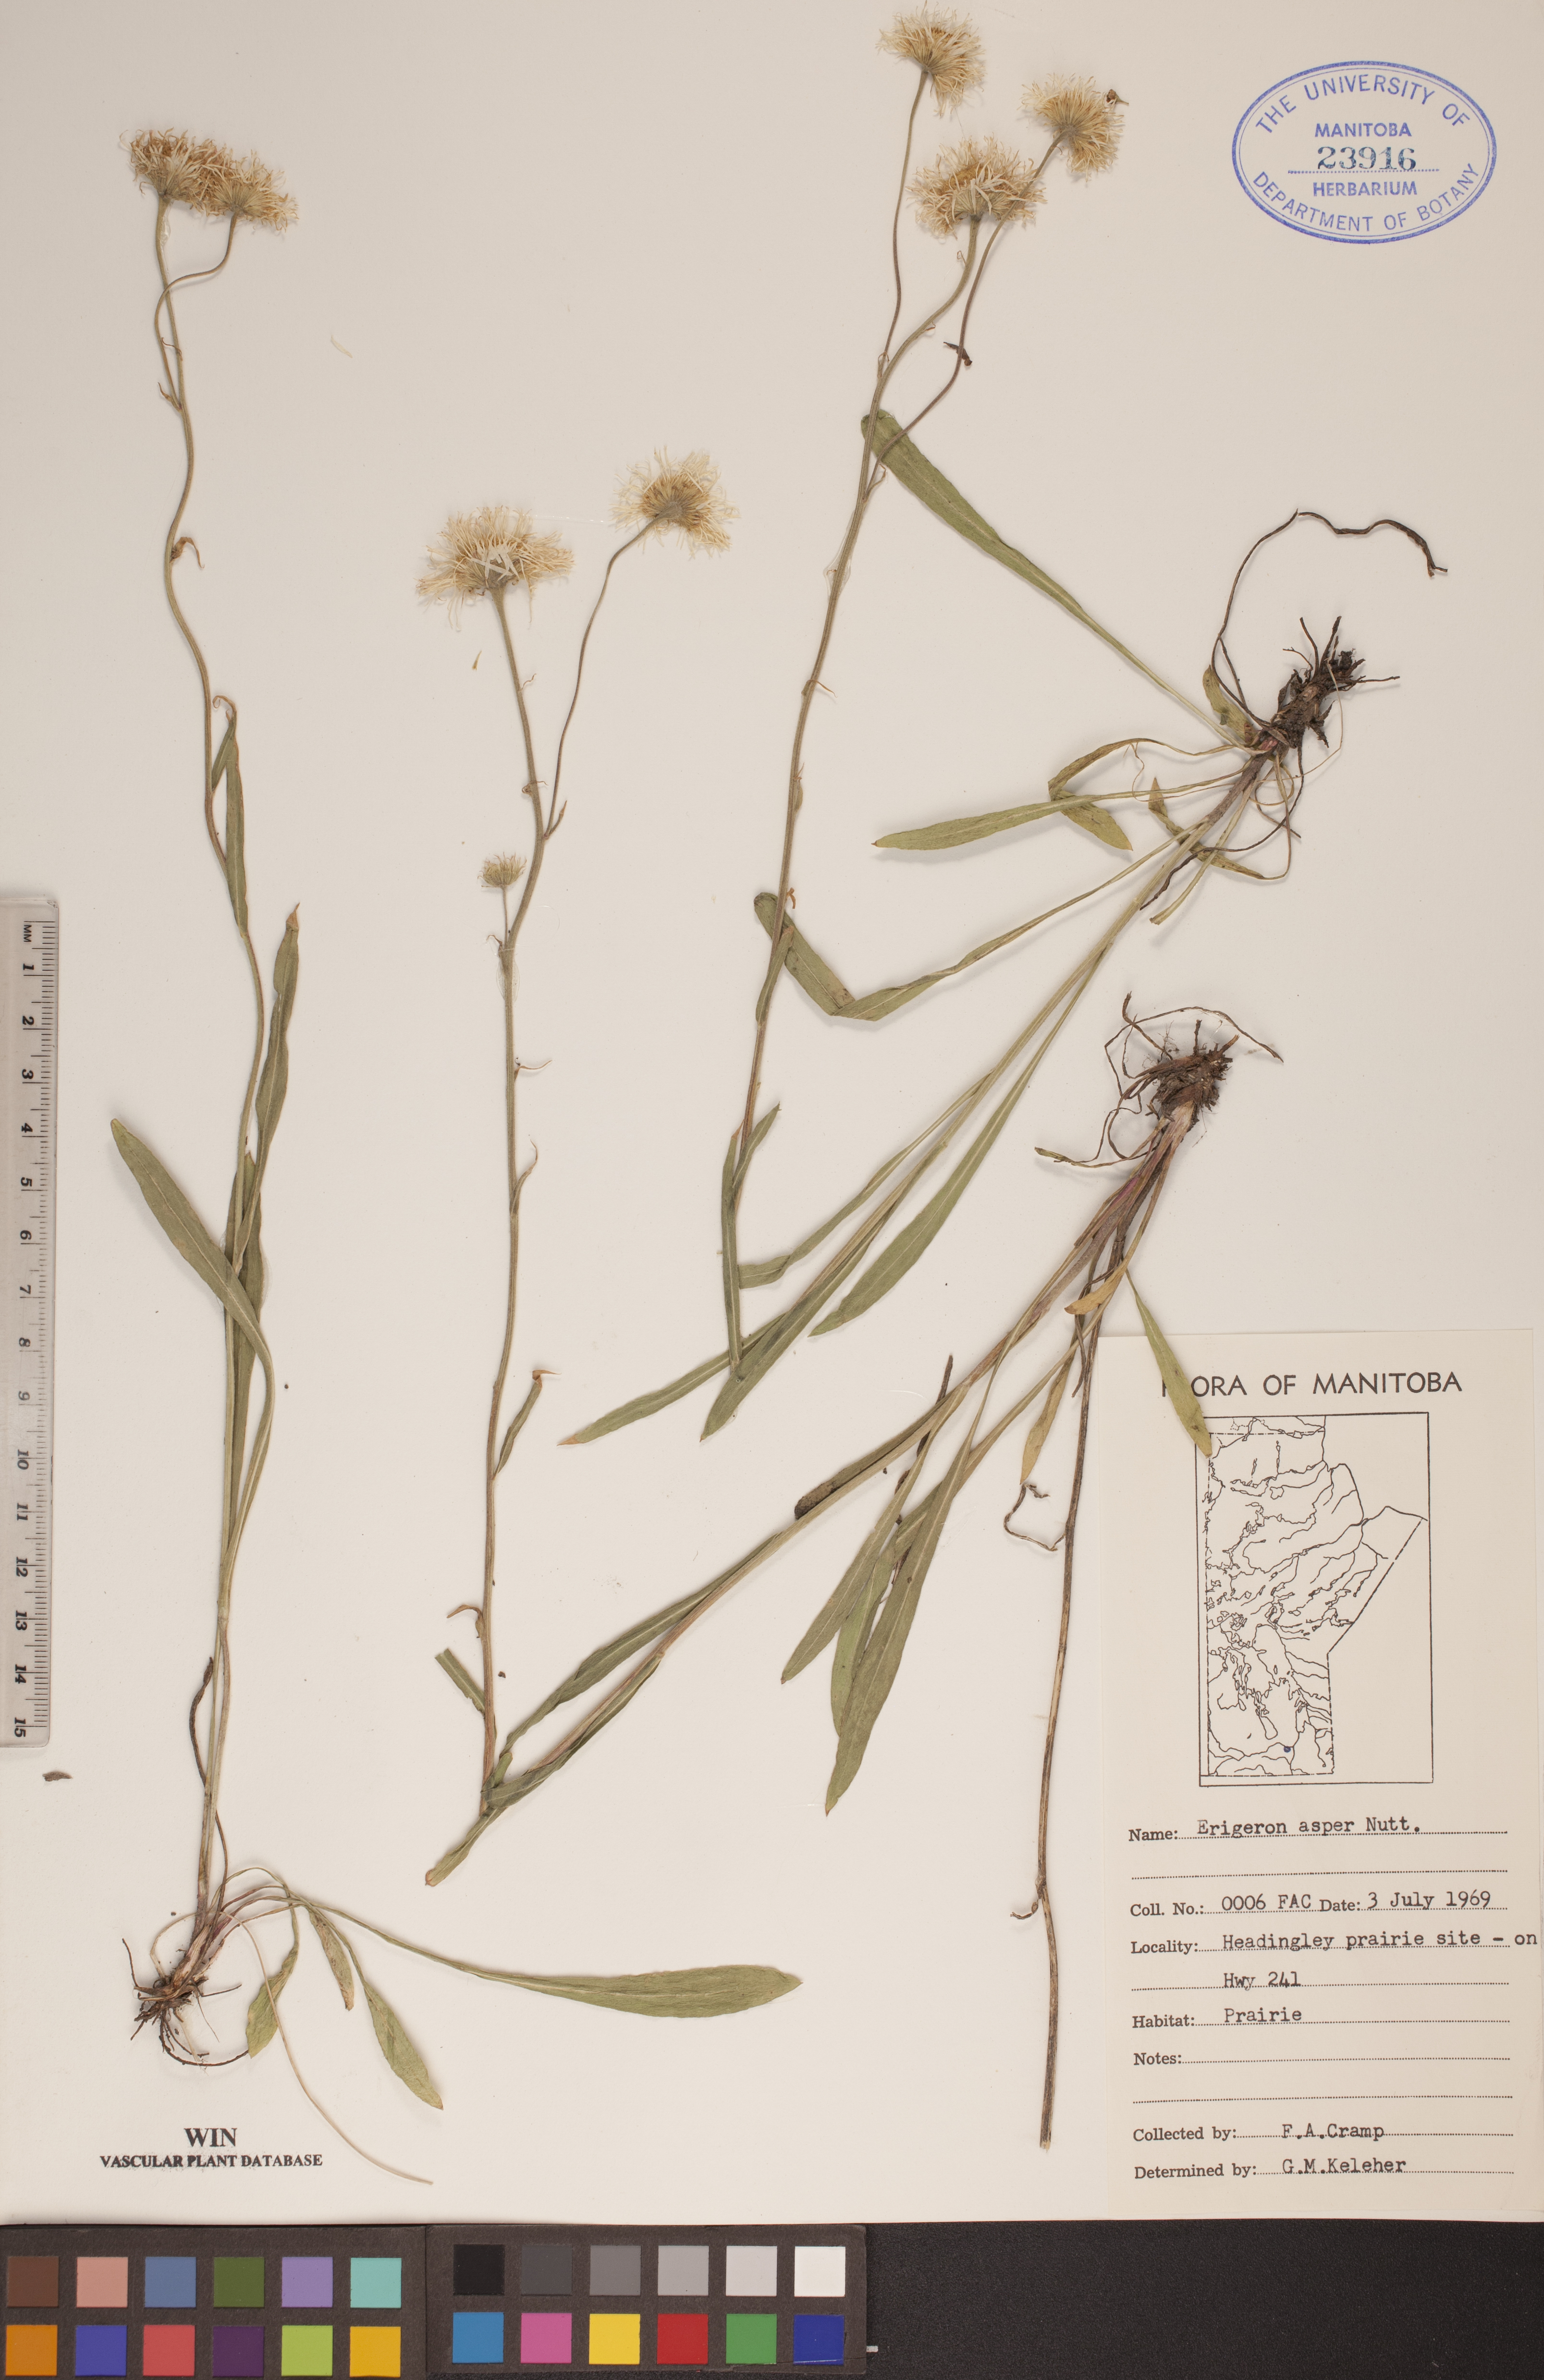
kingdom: Plantae
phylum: Tracheophyta
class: Magnoliopsida
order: Asterales
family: Asteraceae
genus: Erigeron
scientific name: Erigeron glabellus
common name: Smooth fleabane
